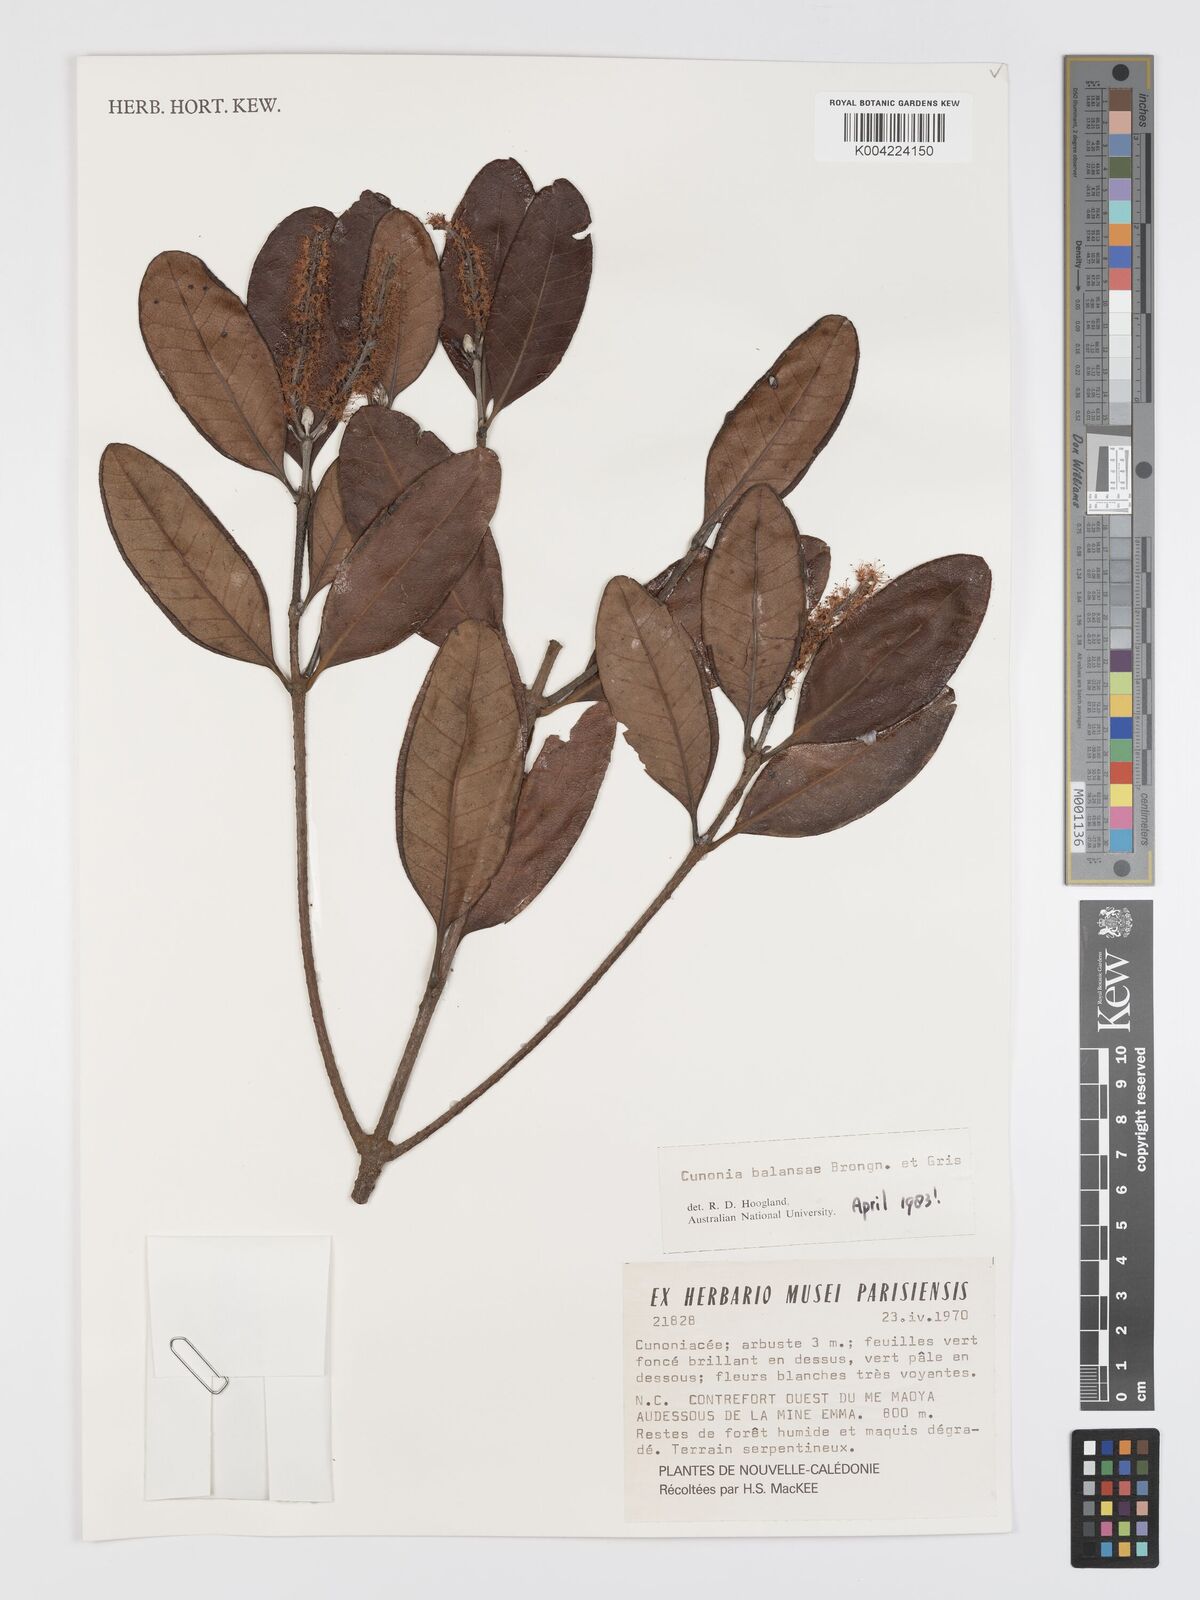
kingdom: Plantae
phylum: Tracheophyta
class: Magnoliopsida
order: Oxalidales
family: Cunoniaceae
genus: Cunonia
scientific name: Cunonia balansae
